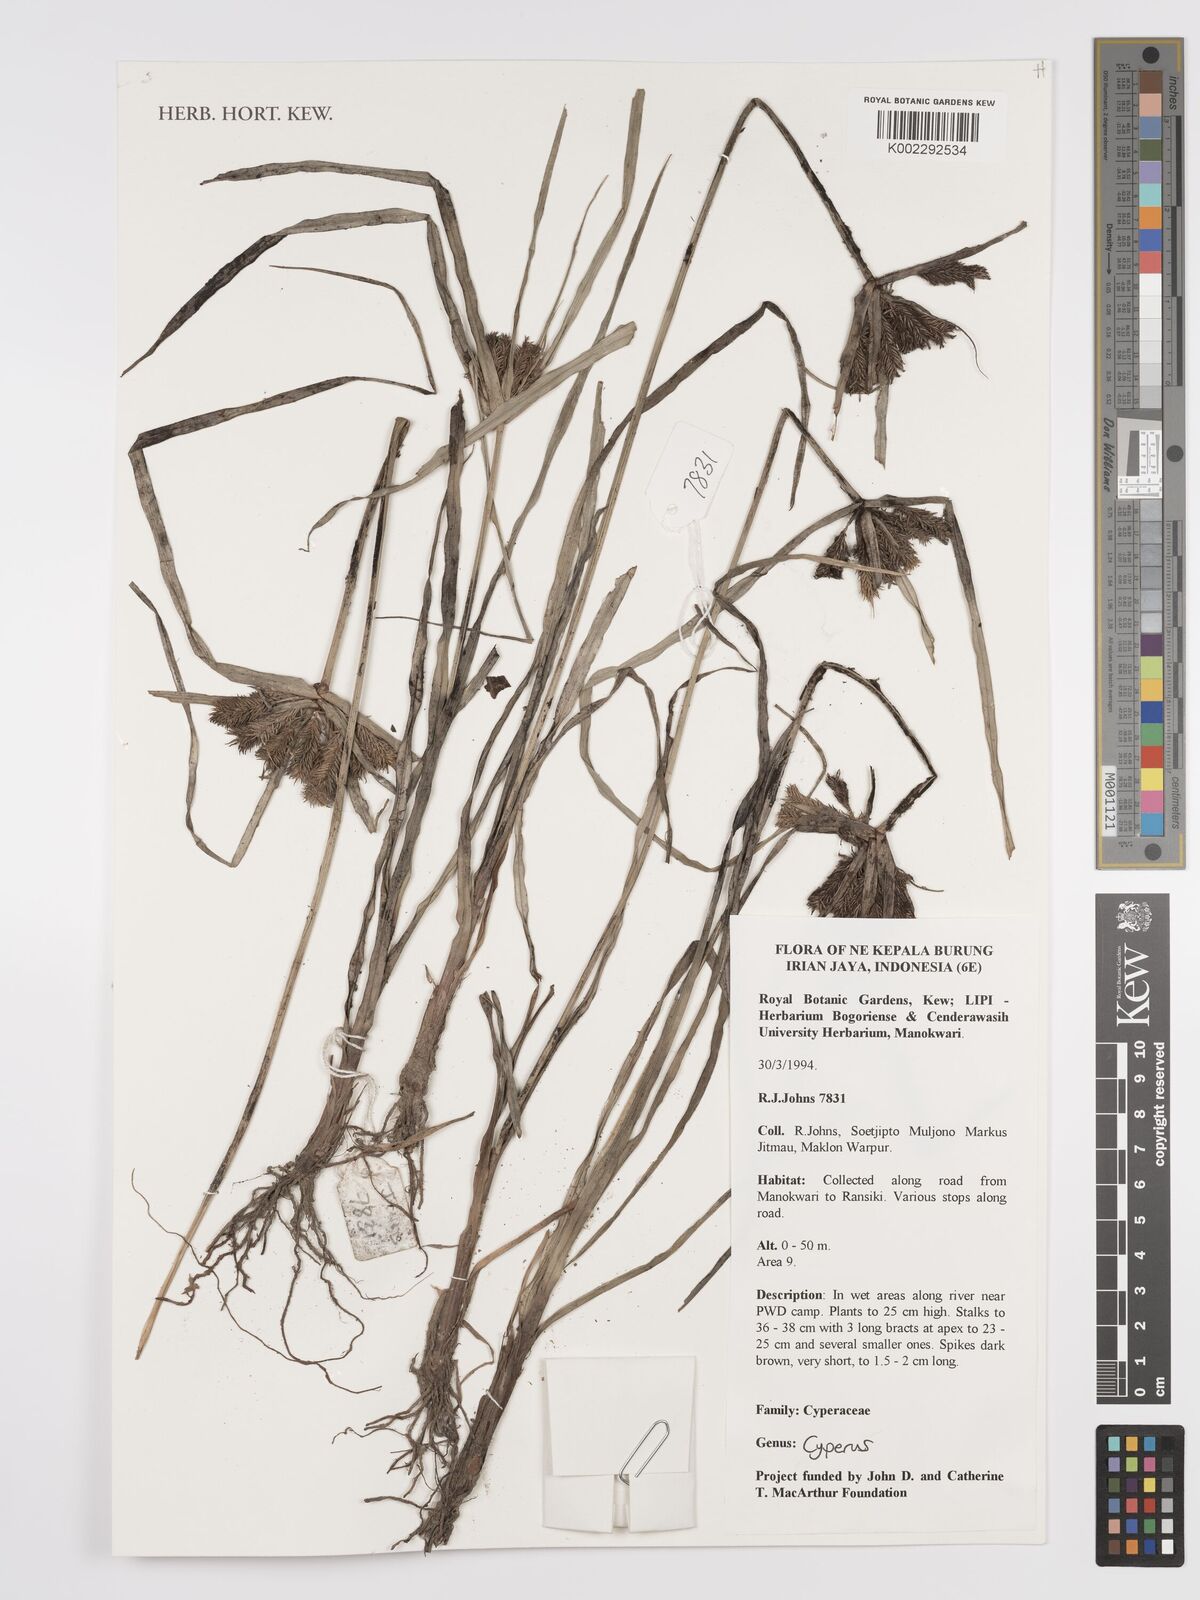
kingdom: Plantae
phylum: Tracheophyta
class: Liliopsida
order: Poales
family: Cyperaceae
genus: Cyperus
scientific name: Cyperus
